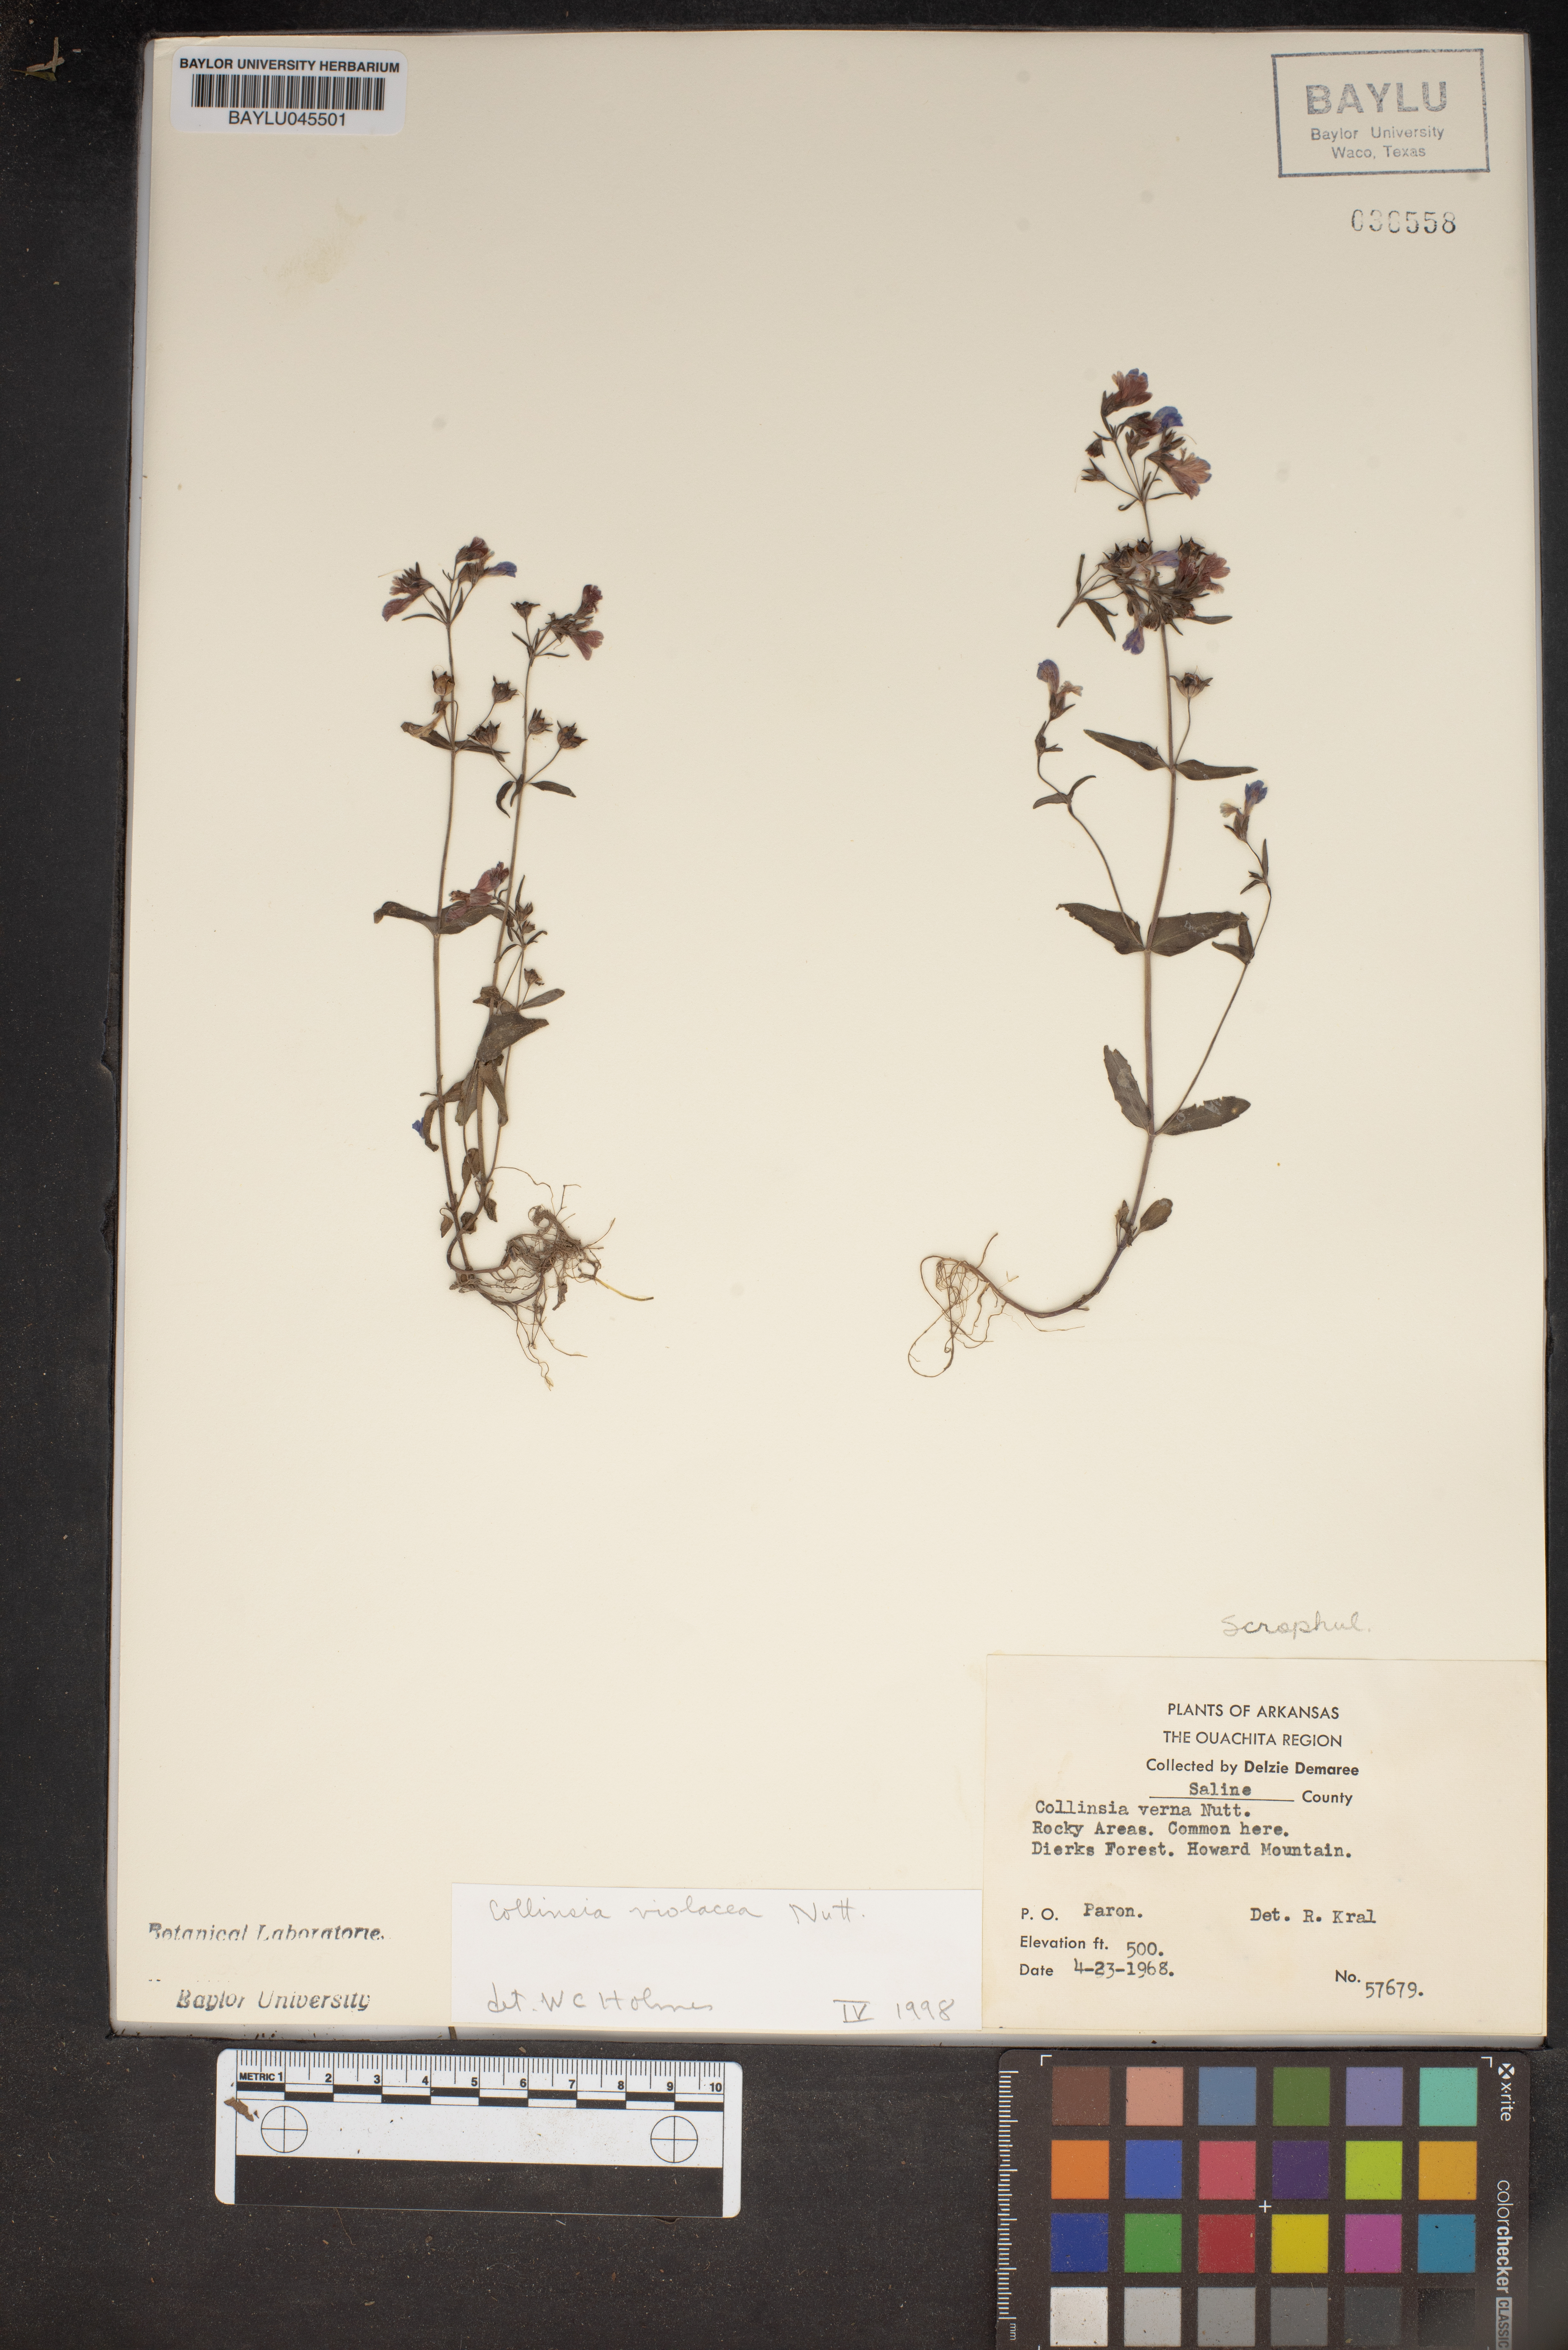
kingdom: Plantae
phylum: Tracheophyta
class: Magnoliopsida
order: Lamiales
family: Plantaginaceae
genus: Collinsia
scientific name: Collinsia violacea
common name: Violet collinsia
